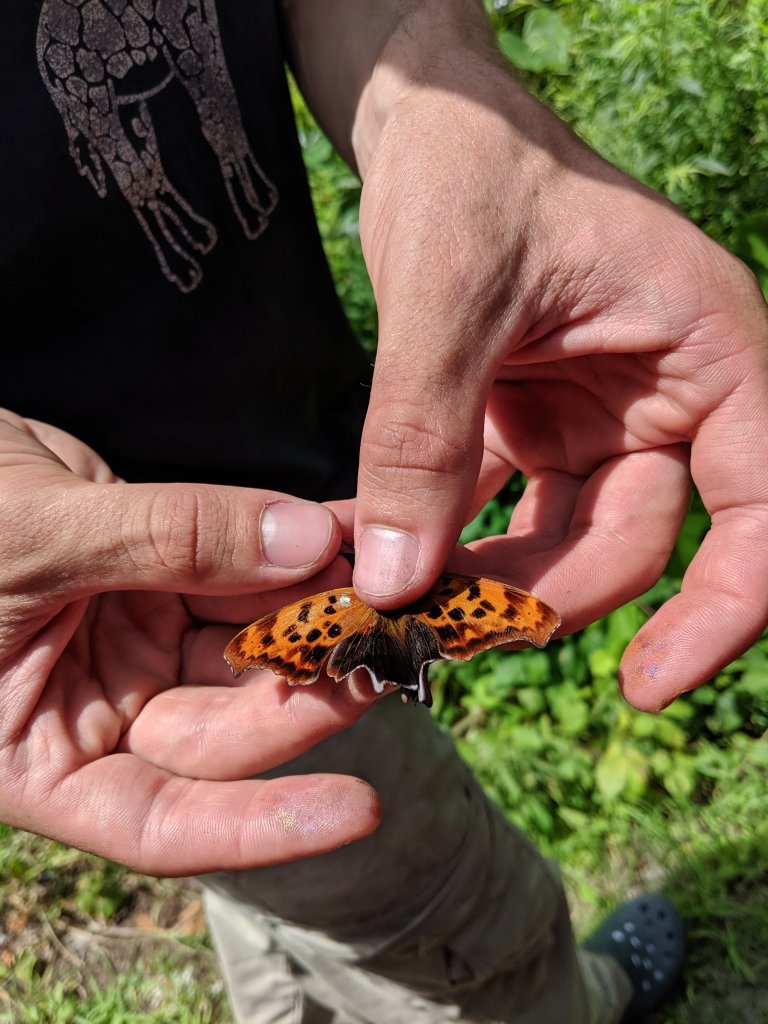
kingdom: Animalia
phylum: Arthropoda
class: Insecta
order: Lepidoptera
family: Nymphalidae
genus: Polygonia
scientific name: Polygonia interrogationis
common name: Question Mark
